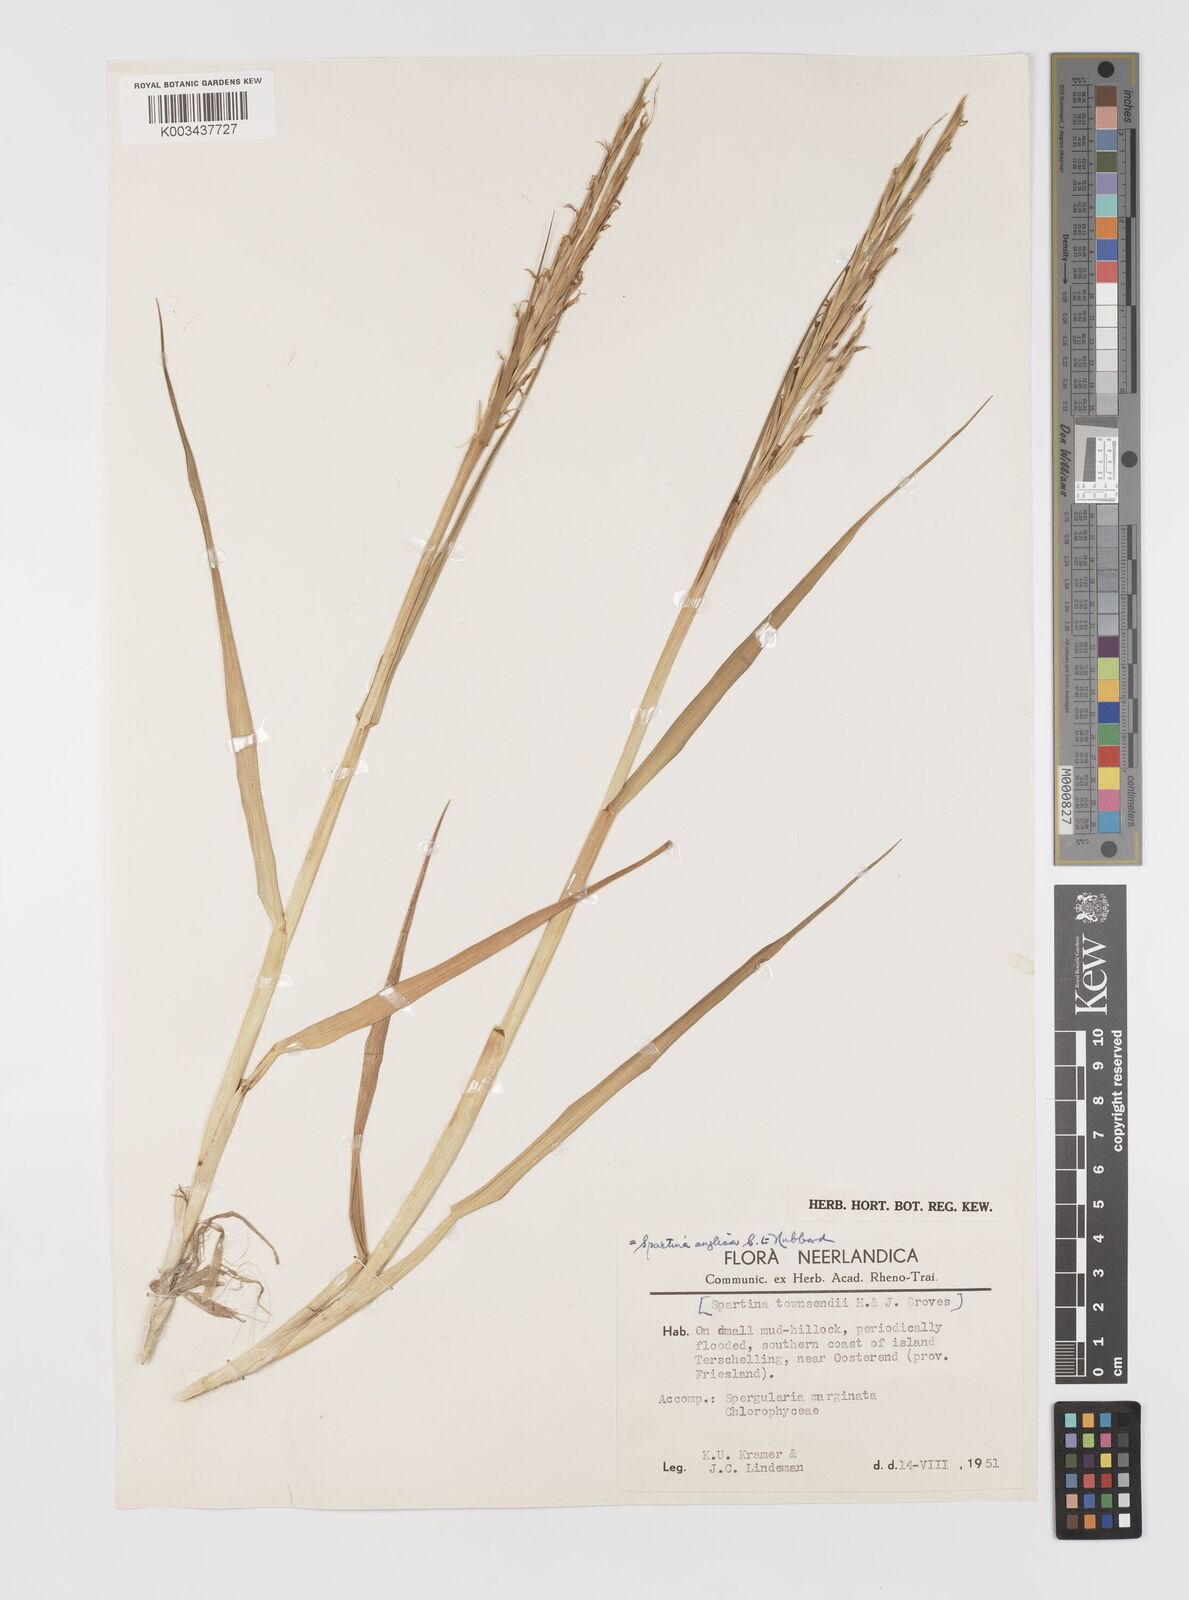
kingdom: Plantae
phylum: Tracheophyta
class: Liliopsida
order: Poales
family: Poaceae
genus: Sporobolus
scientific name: Sporobolus anglicus
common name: English cordgrass
